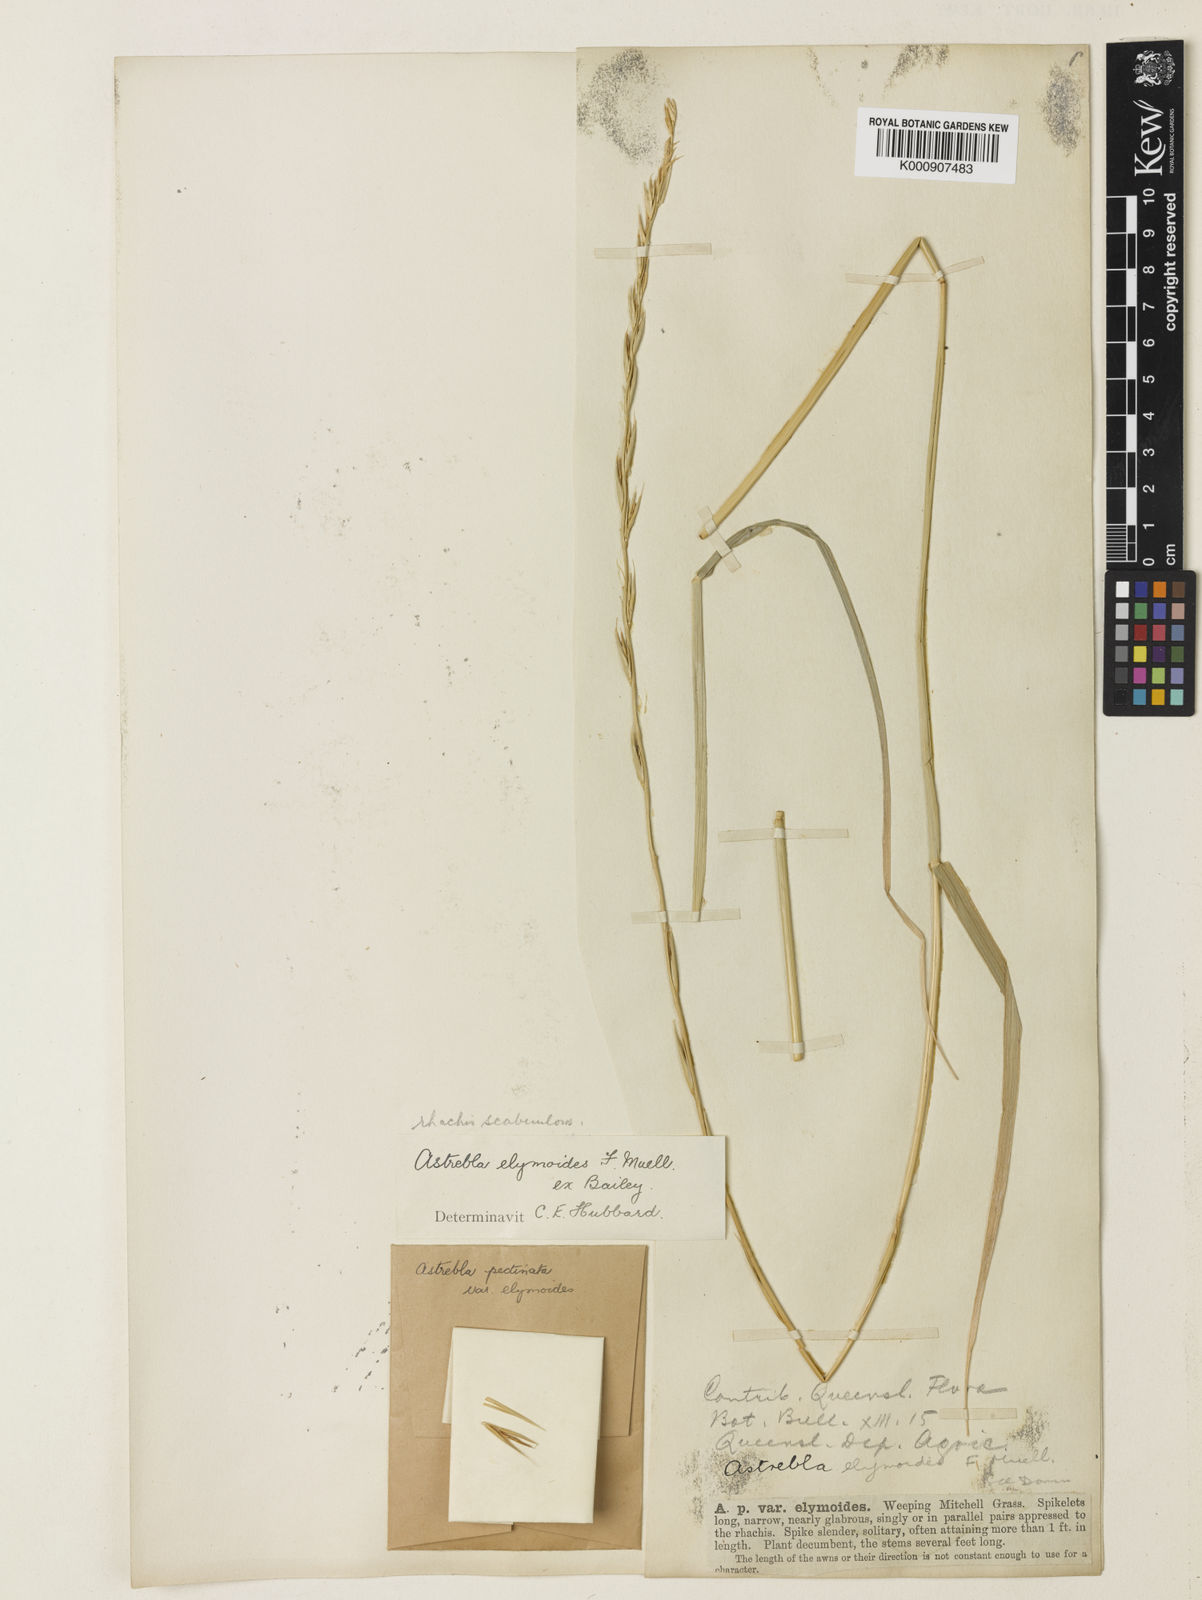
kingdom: Plantae
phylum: Tracheophyta
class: Liliopsida
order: Poales
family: Poaceae
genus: Astrebla
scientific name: Astrebla elymoides
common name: Hoop mitchell grass
